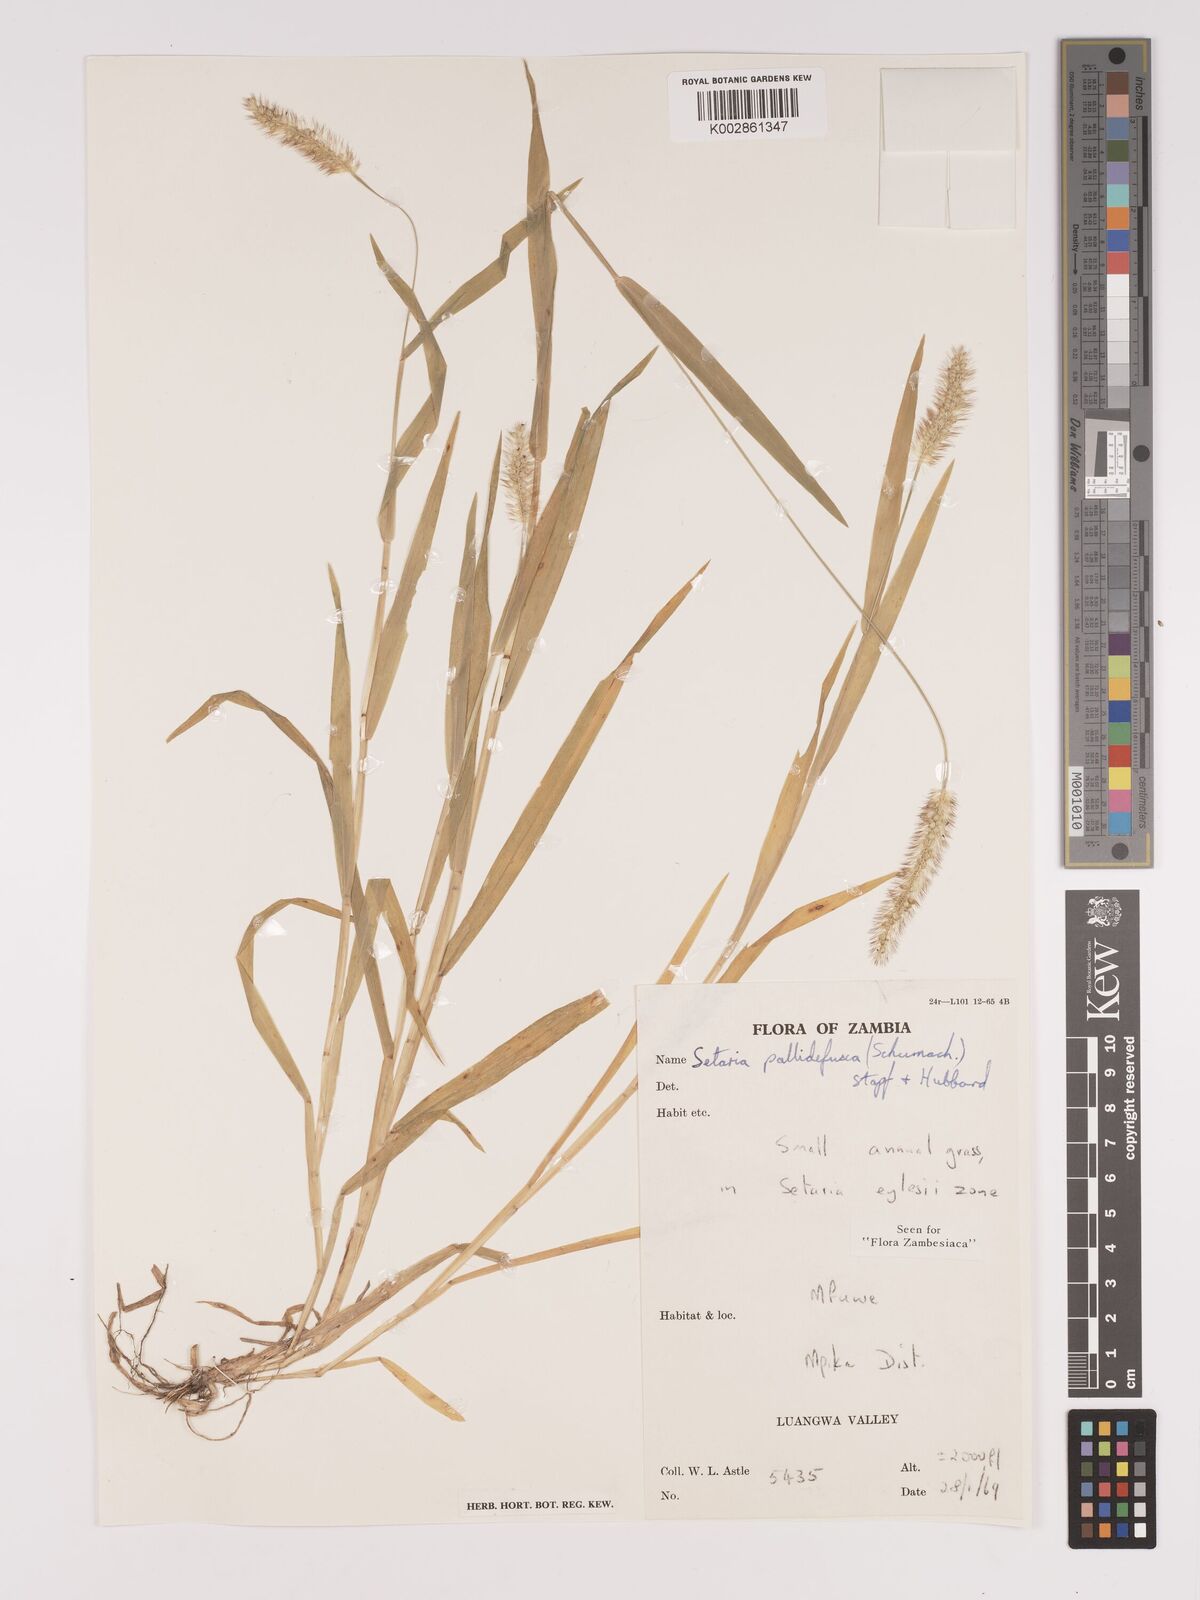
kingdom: Plantae
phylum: Tracheophyta
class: Liliopsida
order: Poales
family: Poaceae
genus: Setaria
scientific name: Setaria pumila
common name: Yellow bristle-grass
